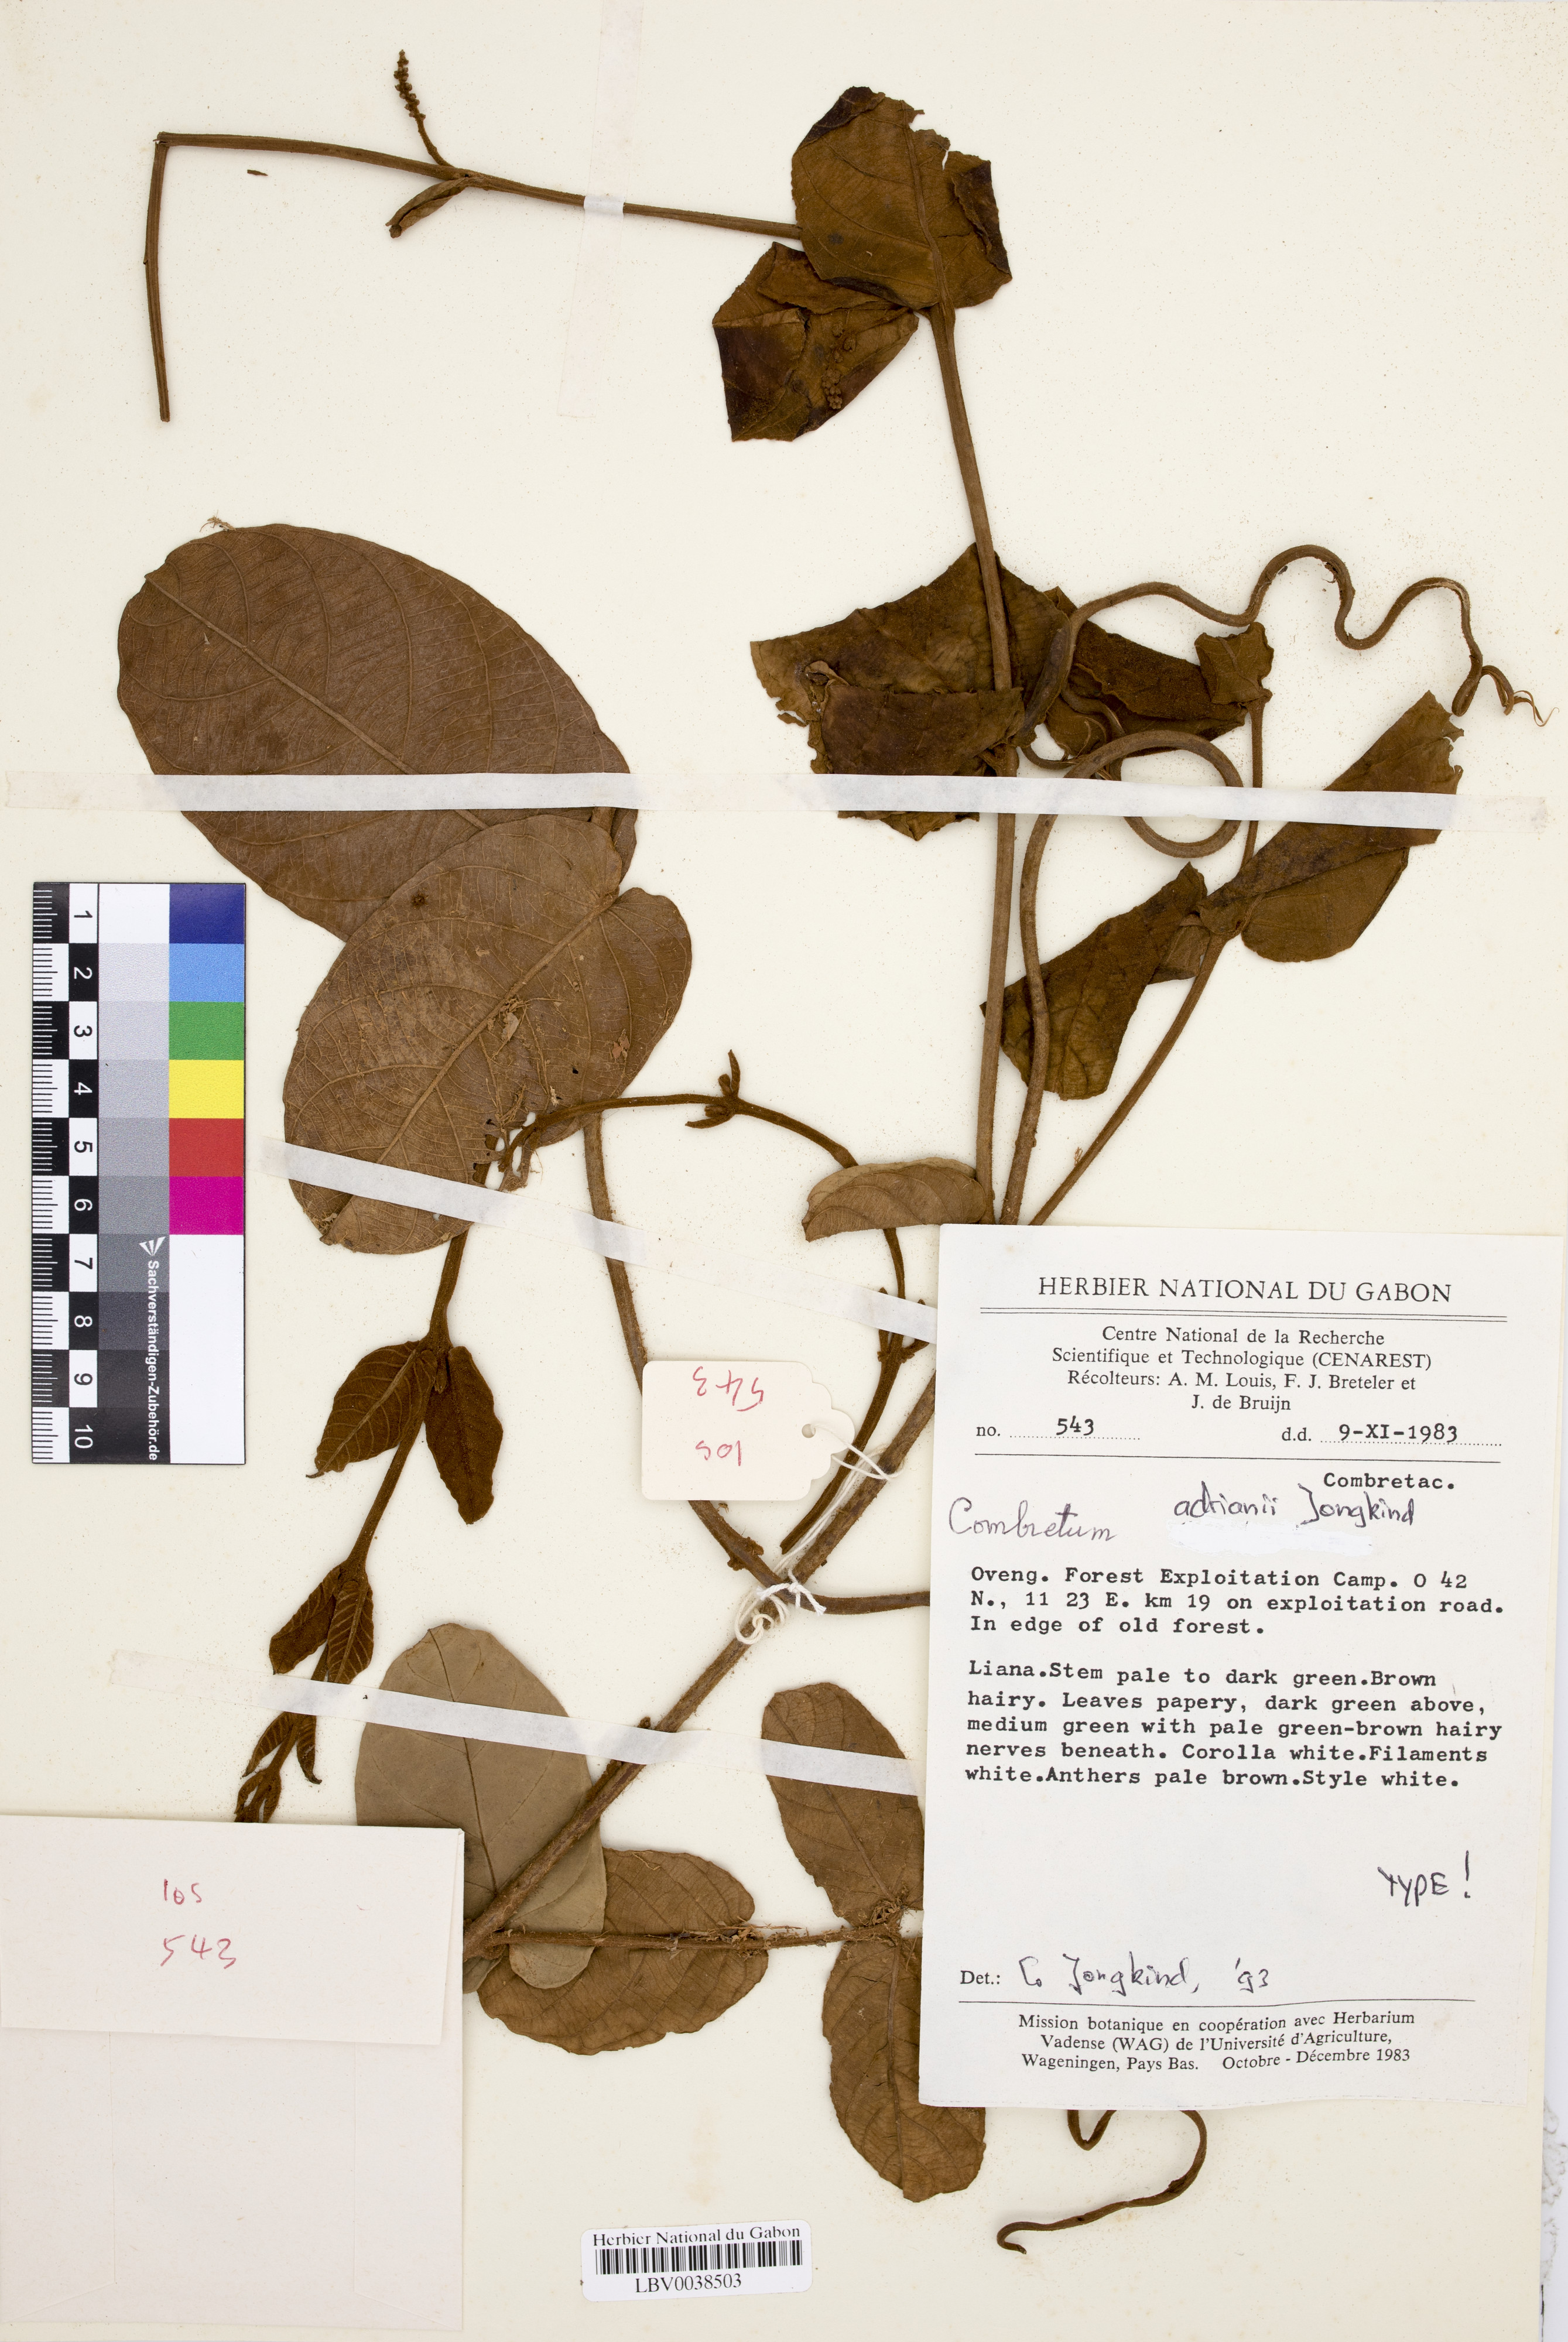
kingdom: Plantae
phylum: Tracheophyta
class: Magnoliopsida
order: Myrtales
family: Combretaceae
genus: Combretum
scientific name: Combretum adrianii
